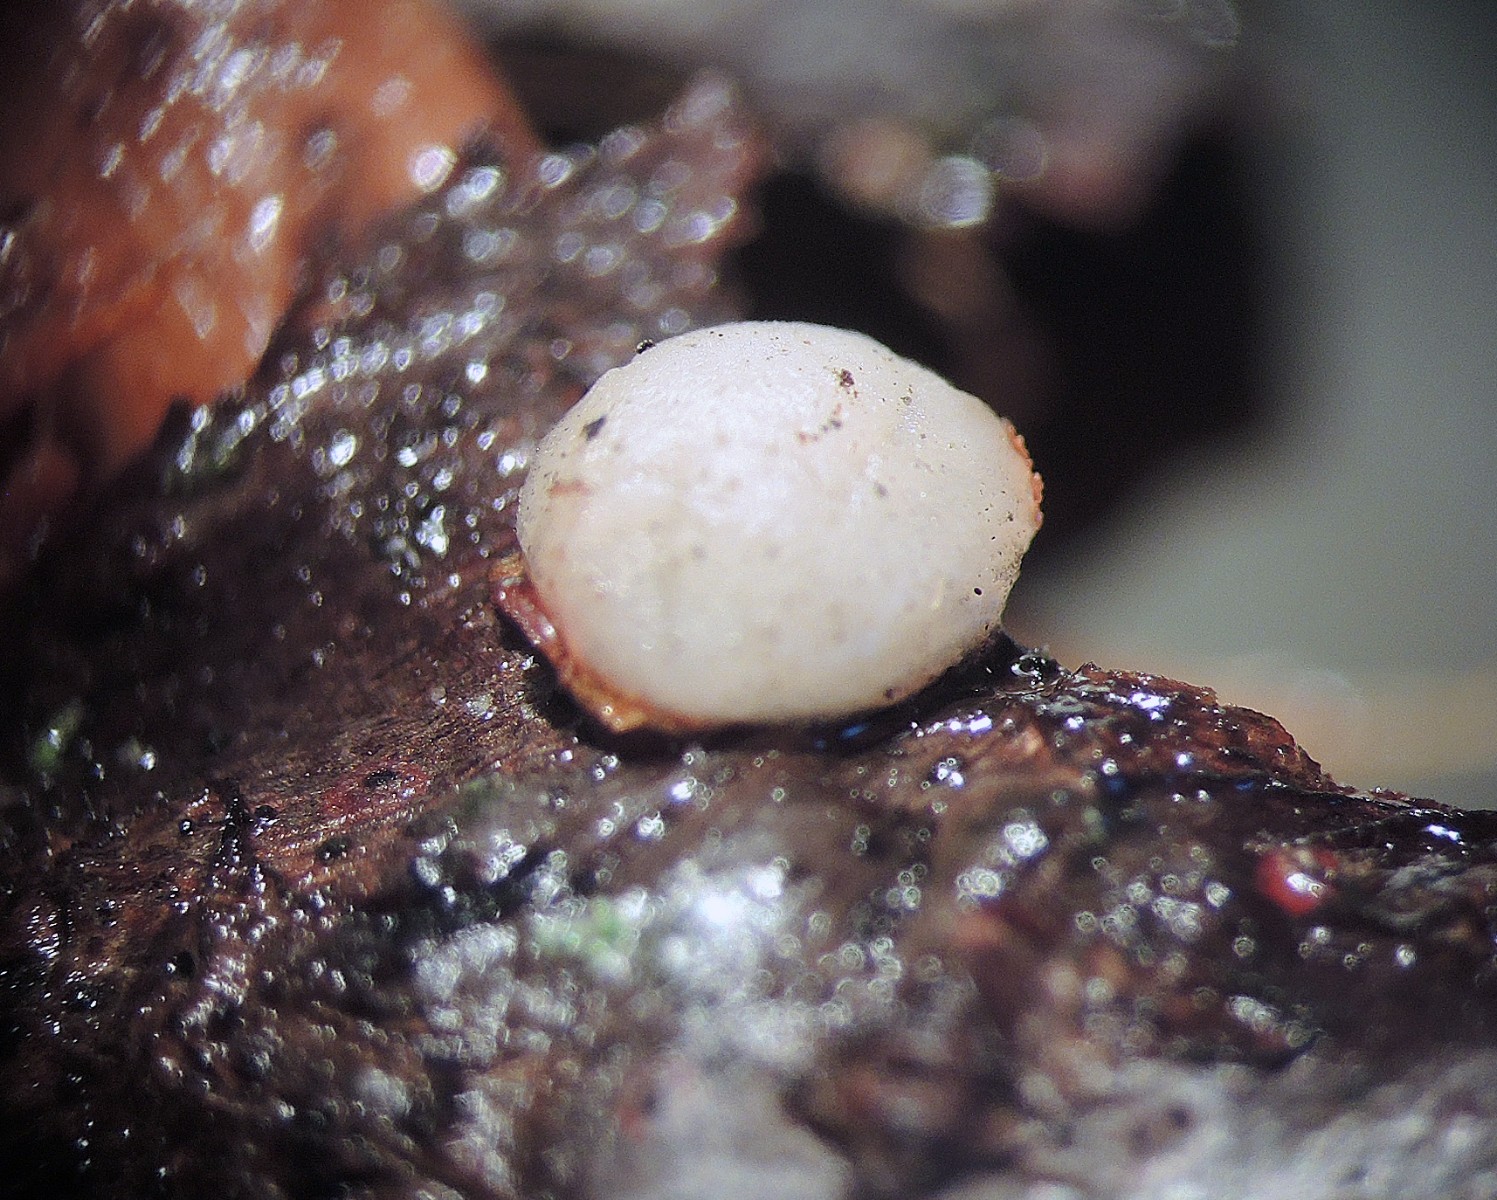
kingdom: Fungi
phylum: Basidiomycota
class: Pucciniomycetes
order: Platygloeales
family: Platygloeaceae
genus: Platygloea
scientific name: Platygloea disciformis
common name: linde-slimklat
